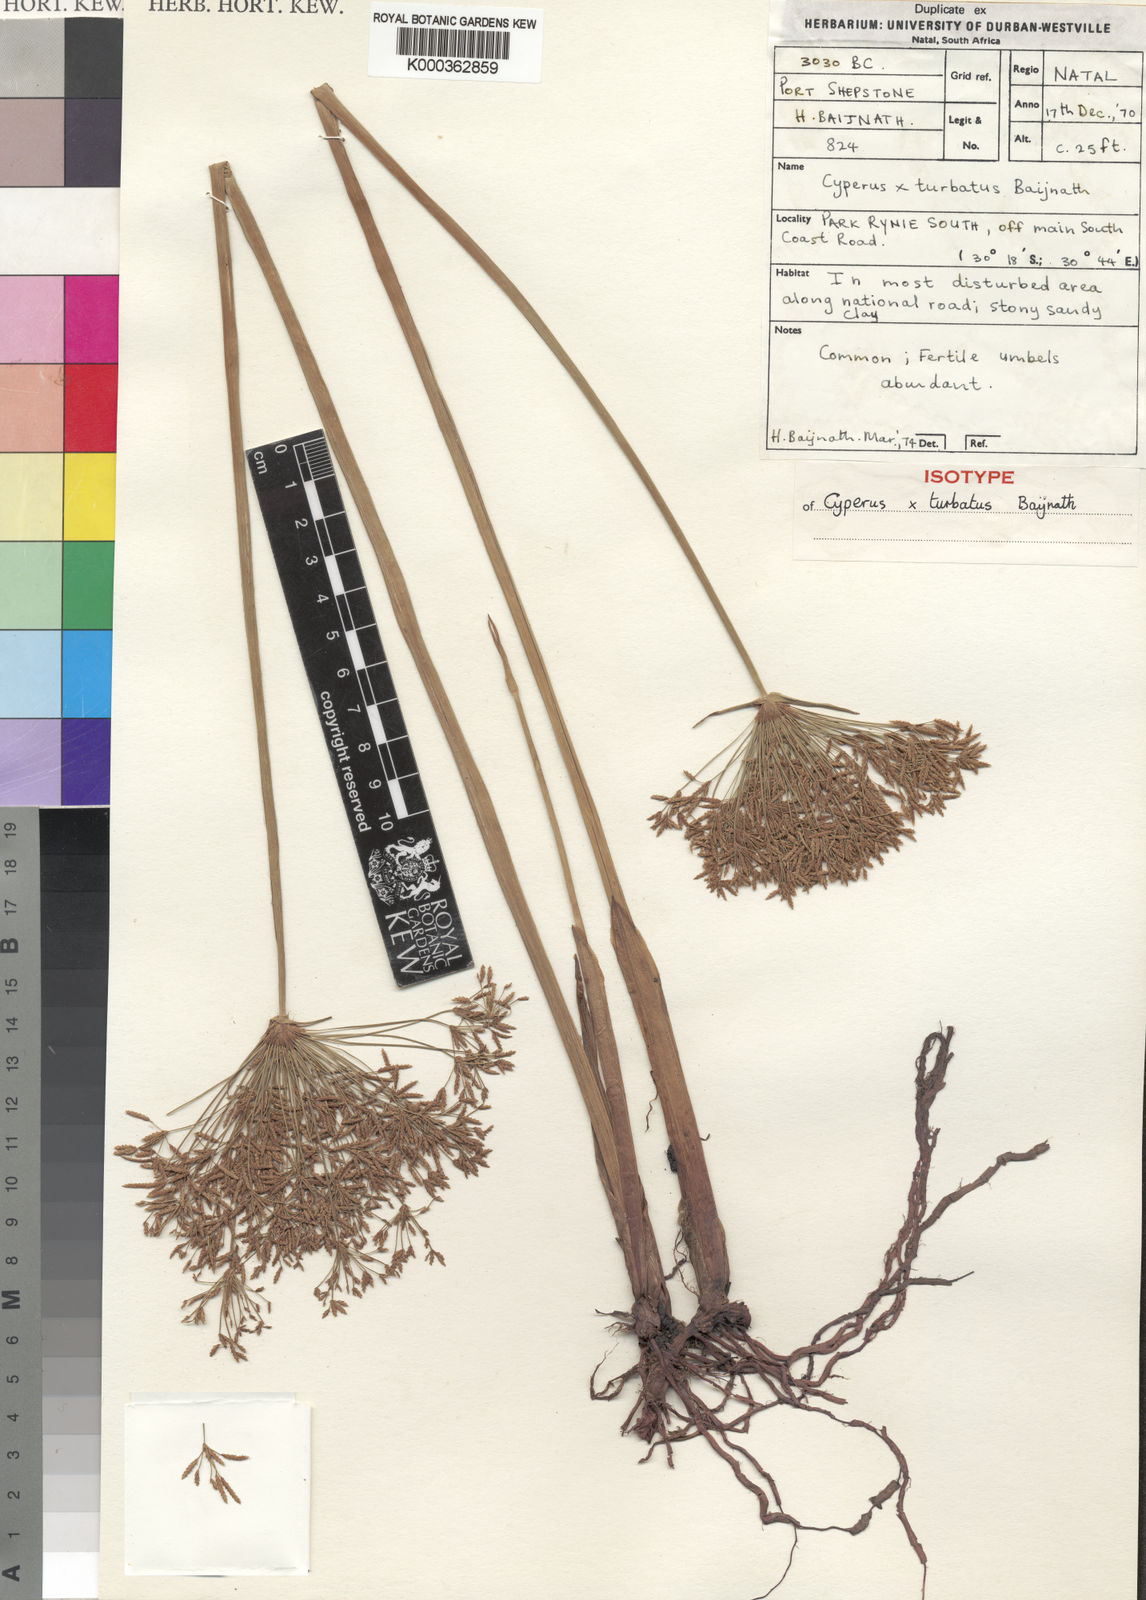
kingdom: Plantae
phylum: Tracheophyta
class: Liliopsida
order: Poales
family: Cyperaceae
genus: Cyperus
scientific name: Cyperus sensilis
